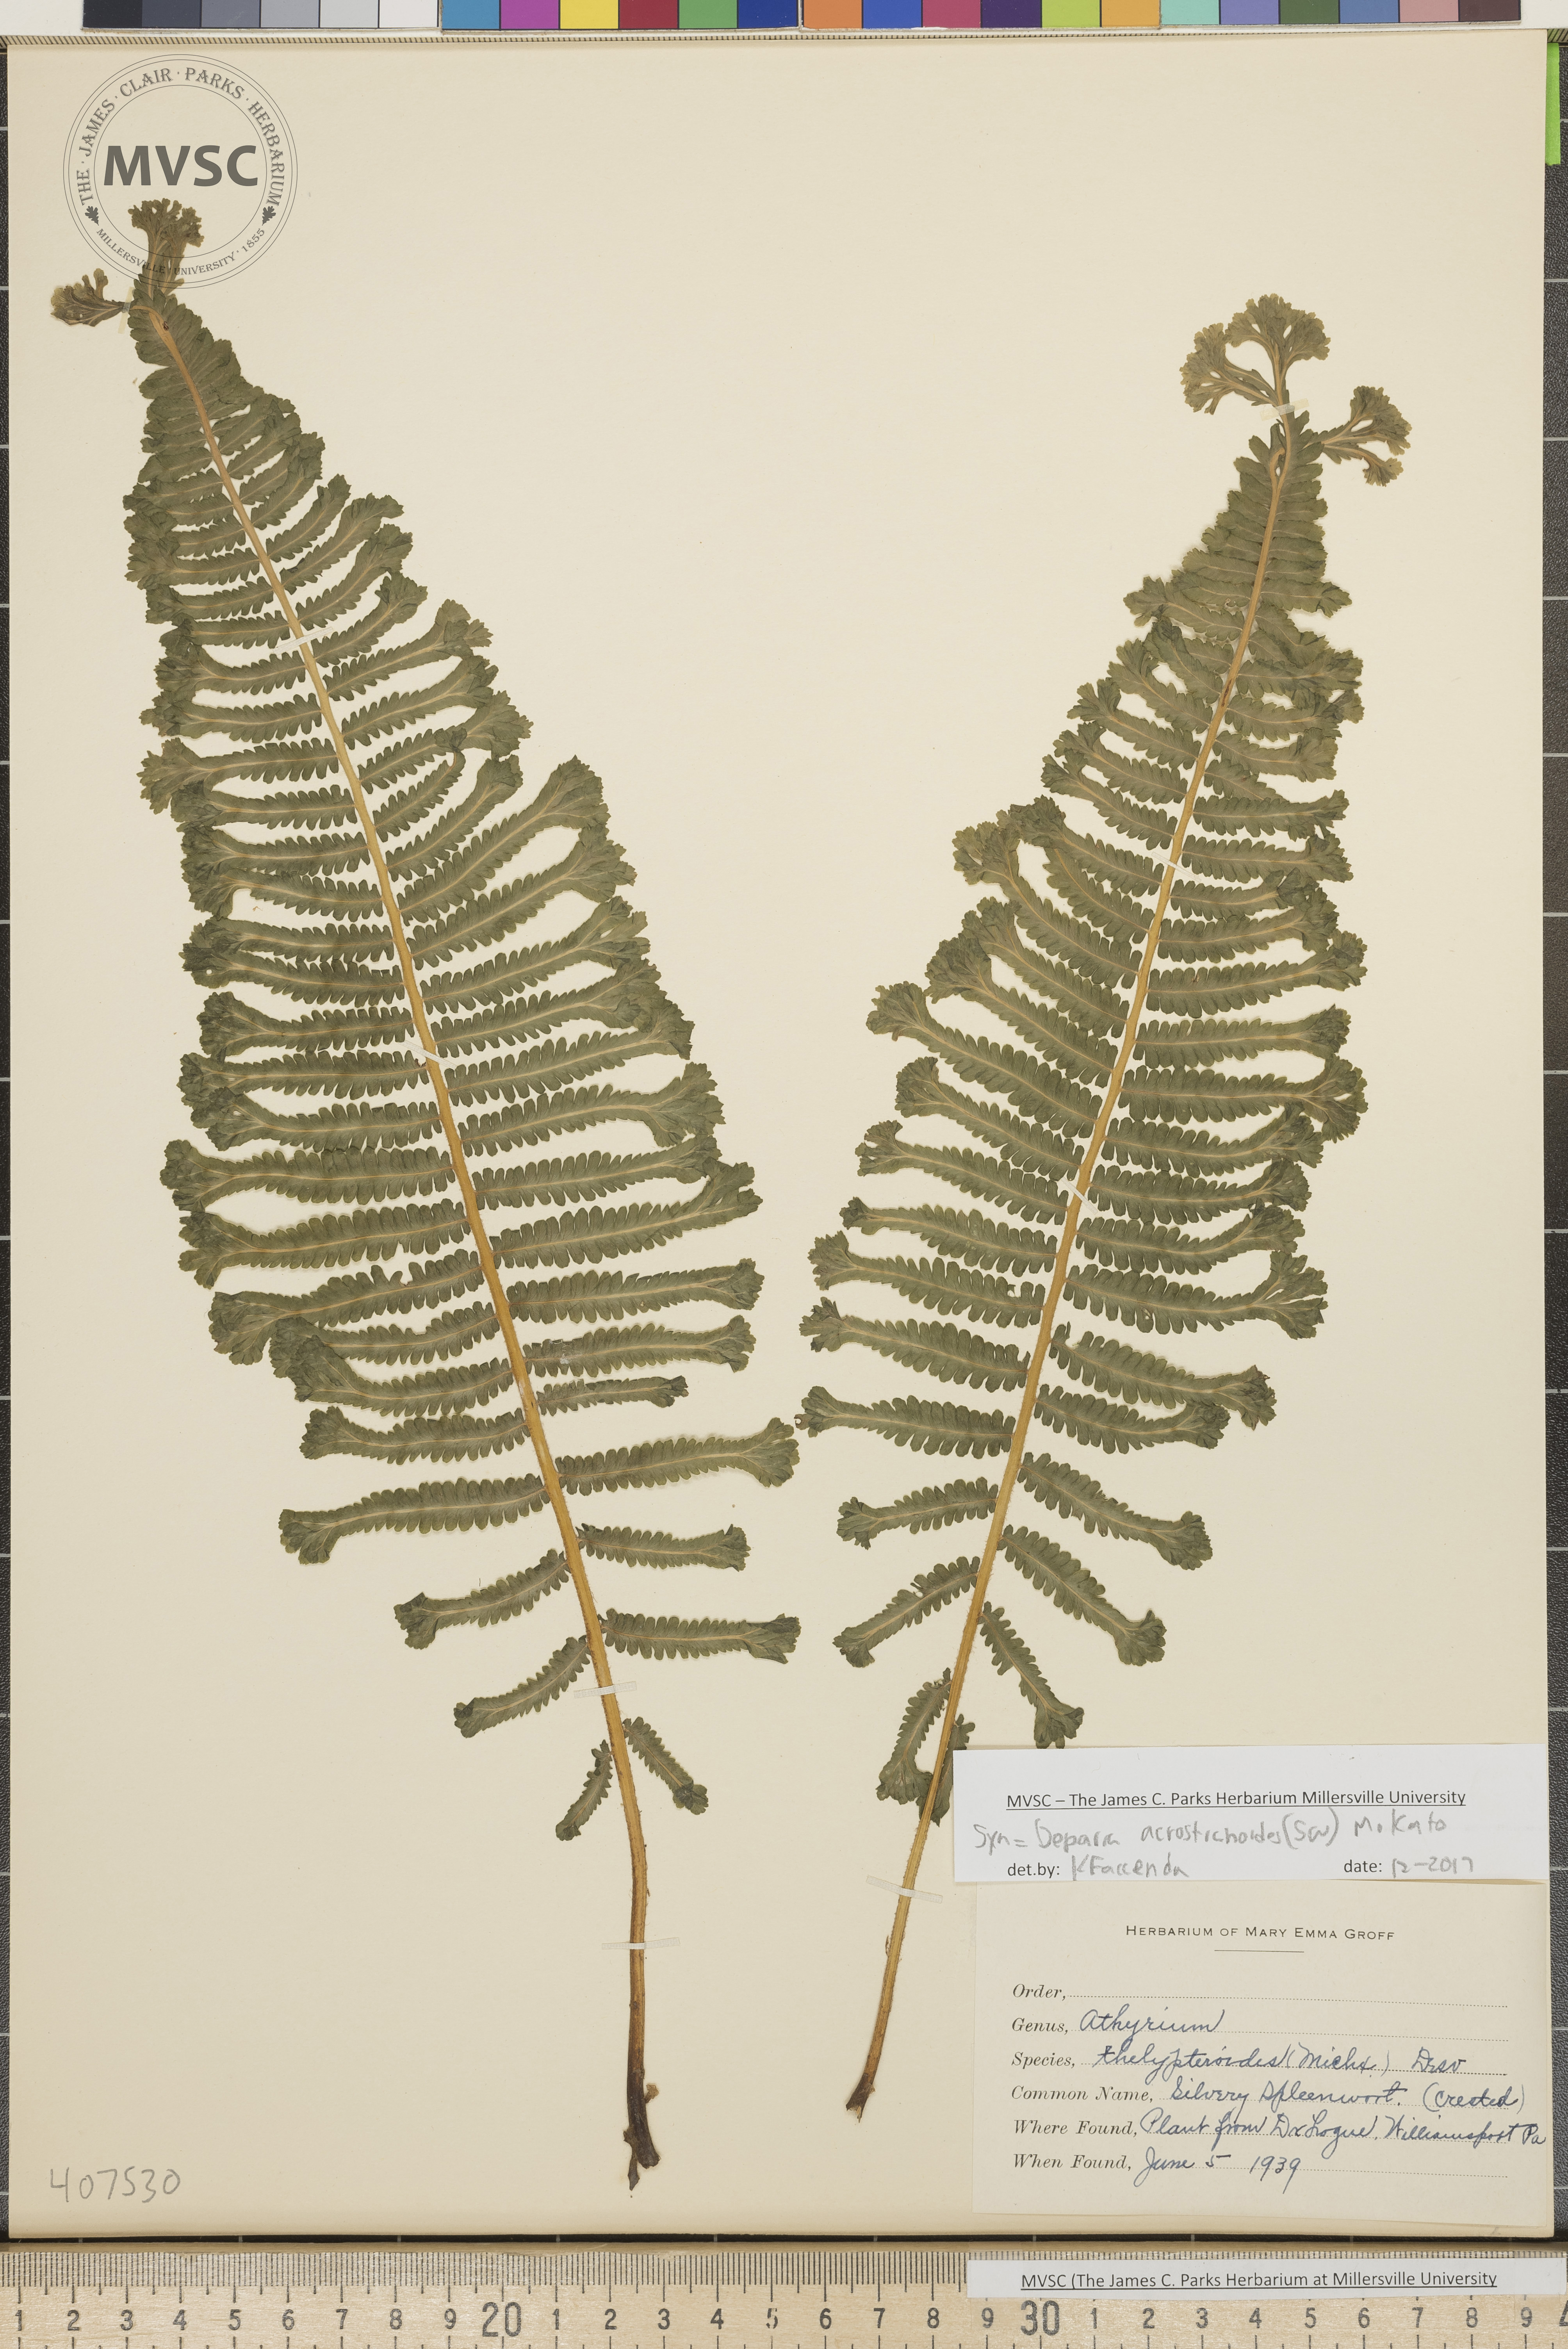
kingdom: Plantae
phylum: Tracheophyta
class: Polypodiopsida
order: Polypodiales
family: Athyriaceae
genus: Deparia
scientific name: Deparia acrostichoides
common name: Silver false spleenwort
